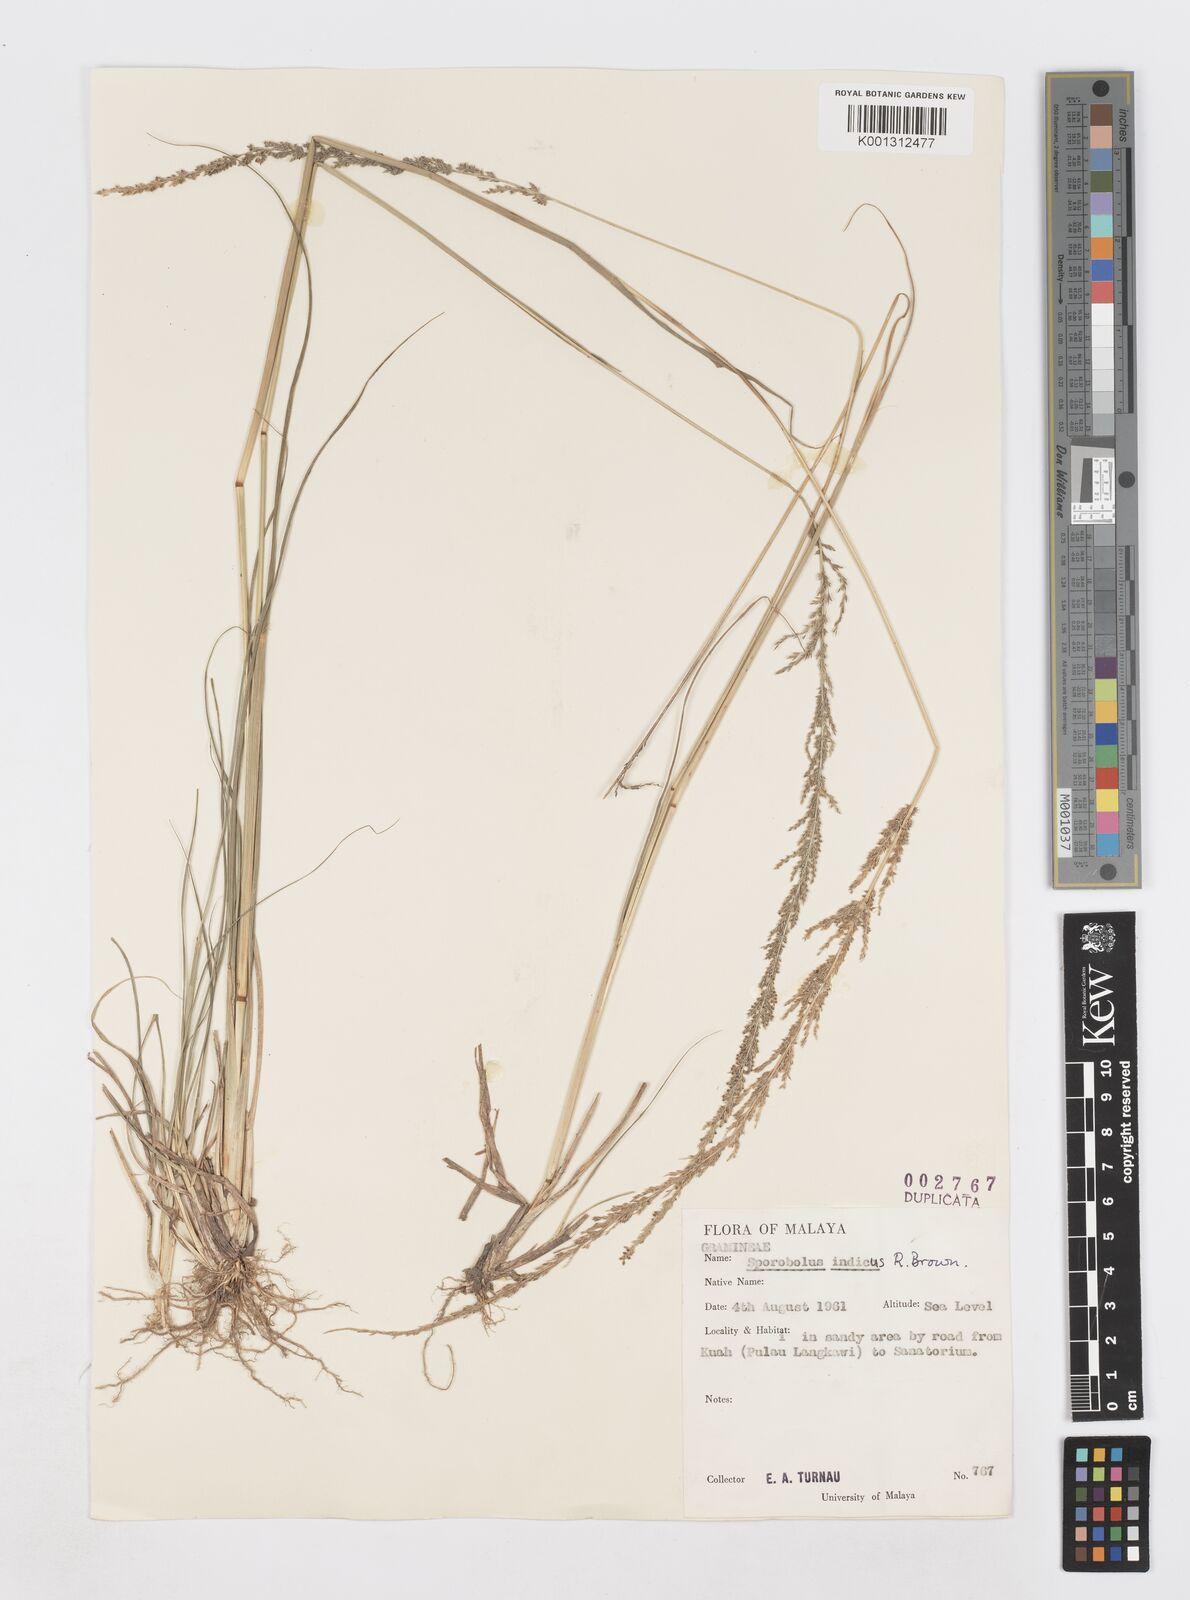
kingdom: Plantae
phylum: Tracheophyta
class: Liliopsida
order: Poales
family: Poaceae
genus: Sporobolus
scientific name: Sporobolus fertilis
